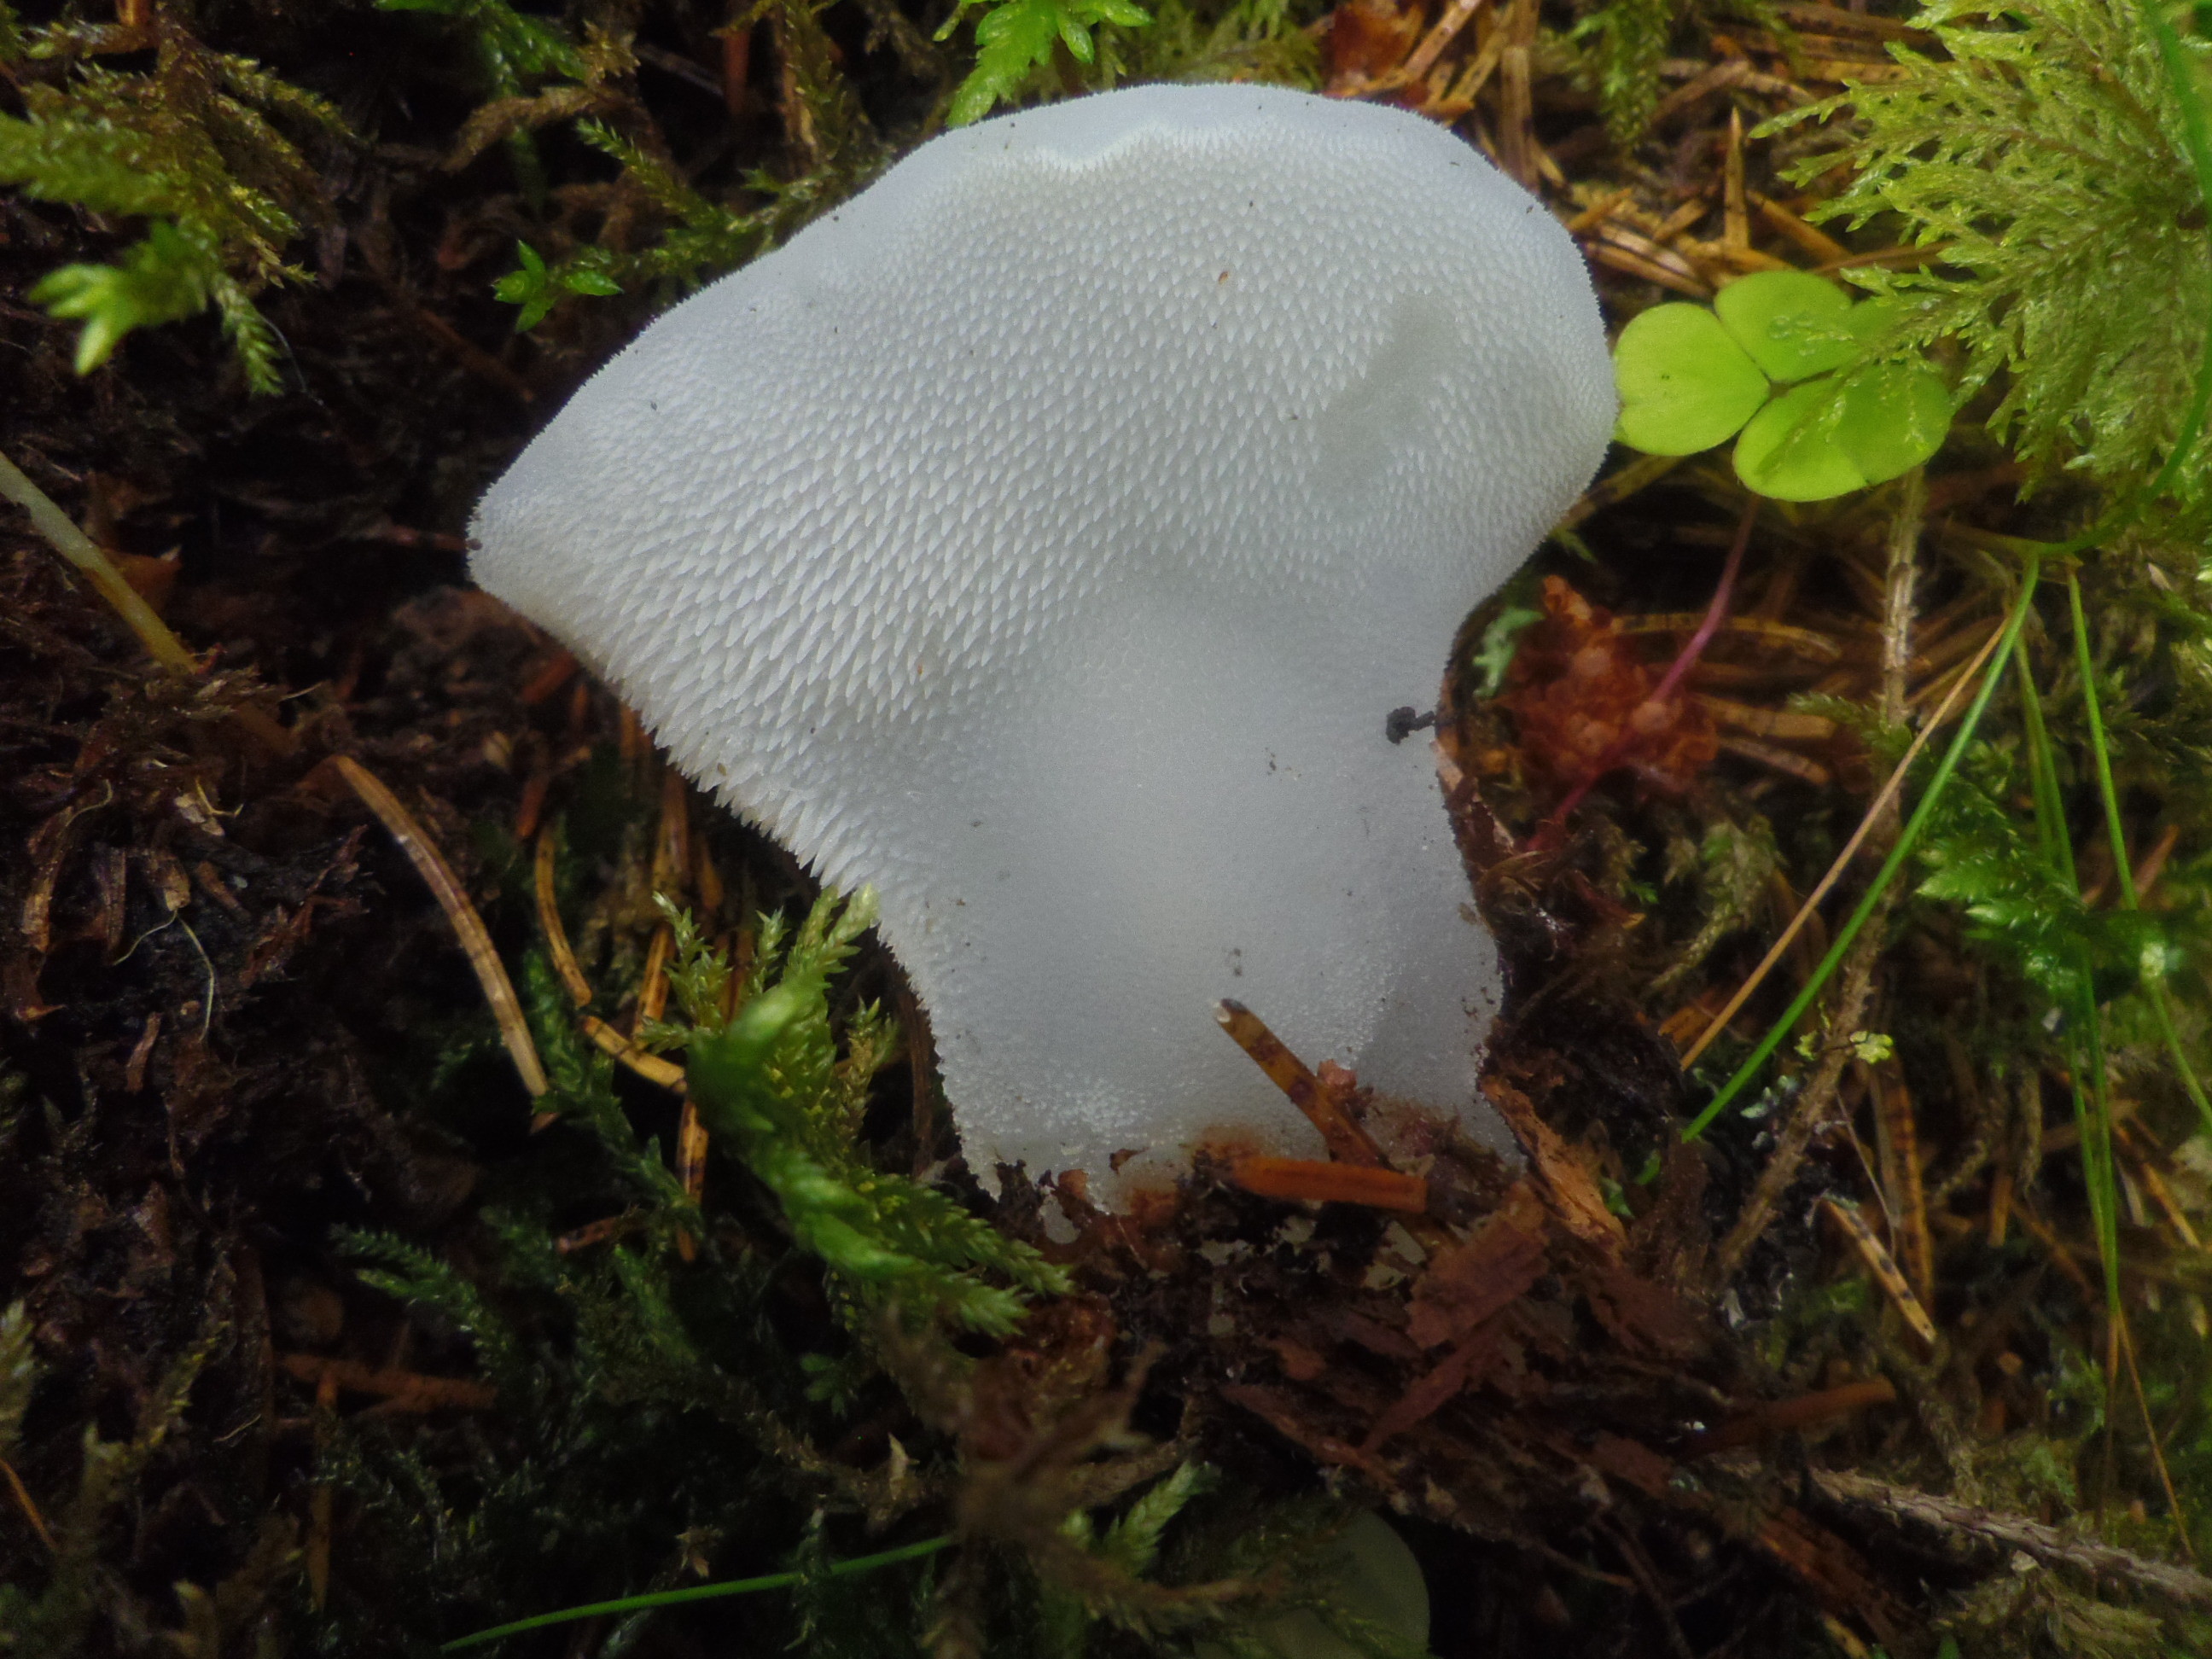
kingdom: Fungi
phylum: Basidiomycota
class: Agaricomycetes
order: Auriculariales
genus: Pseudohydnum
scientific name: Pseudohydnum gelatinosum
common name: Jelly tongue
